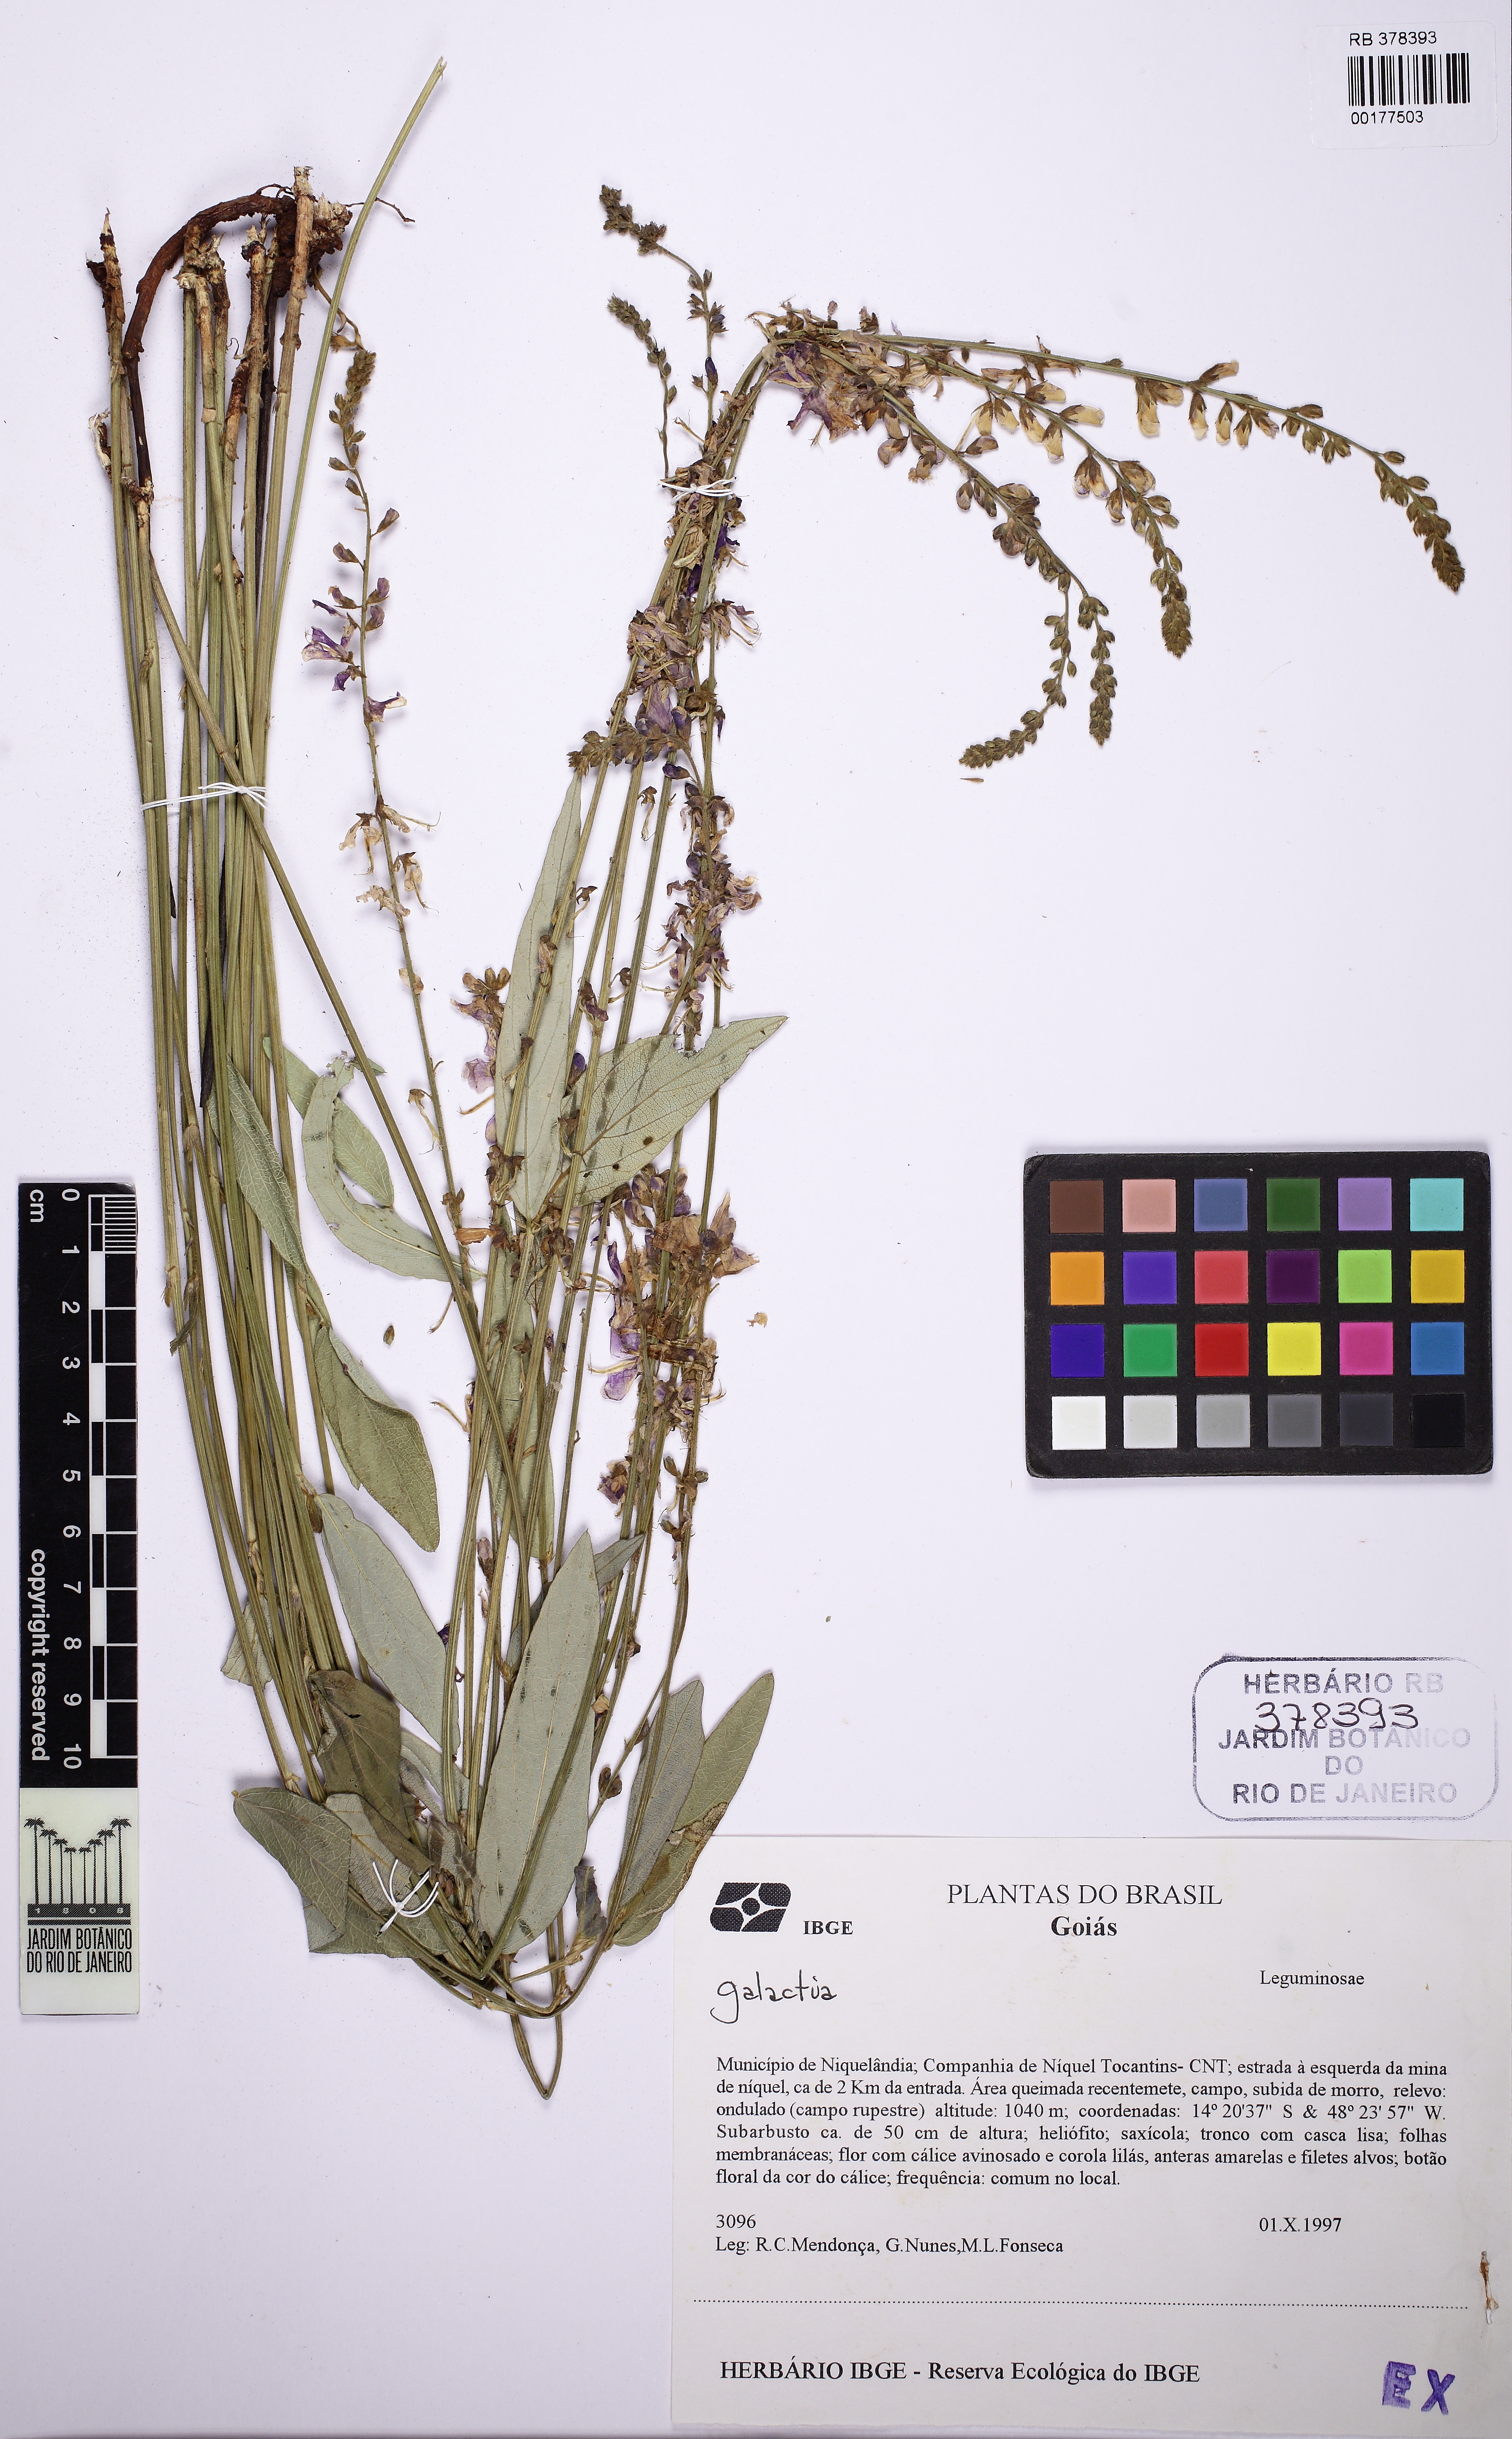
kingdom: Plantae
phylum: Tracheophyta
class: Magnoliopsida
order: Fabales
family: Fabaceae
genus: Desmodium
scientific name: Desmodium platycarpum
